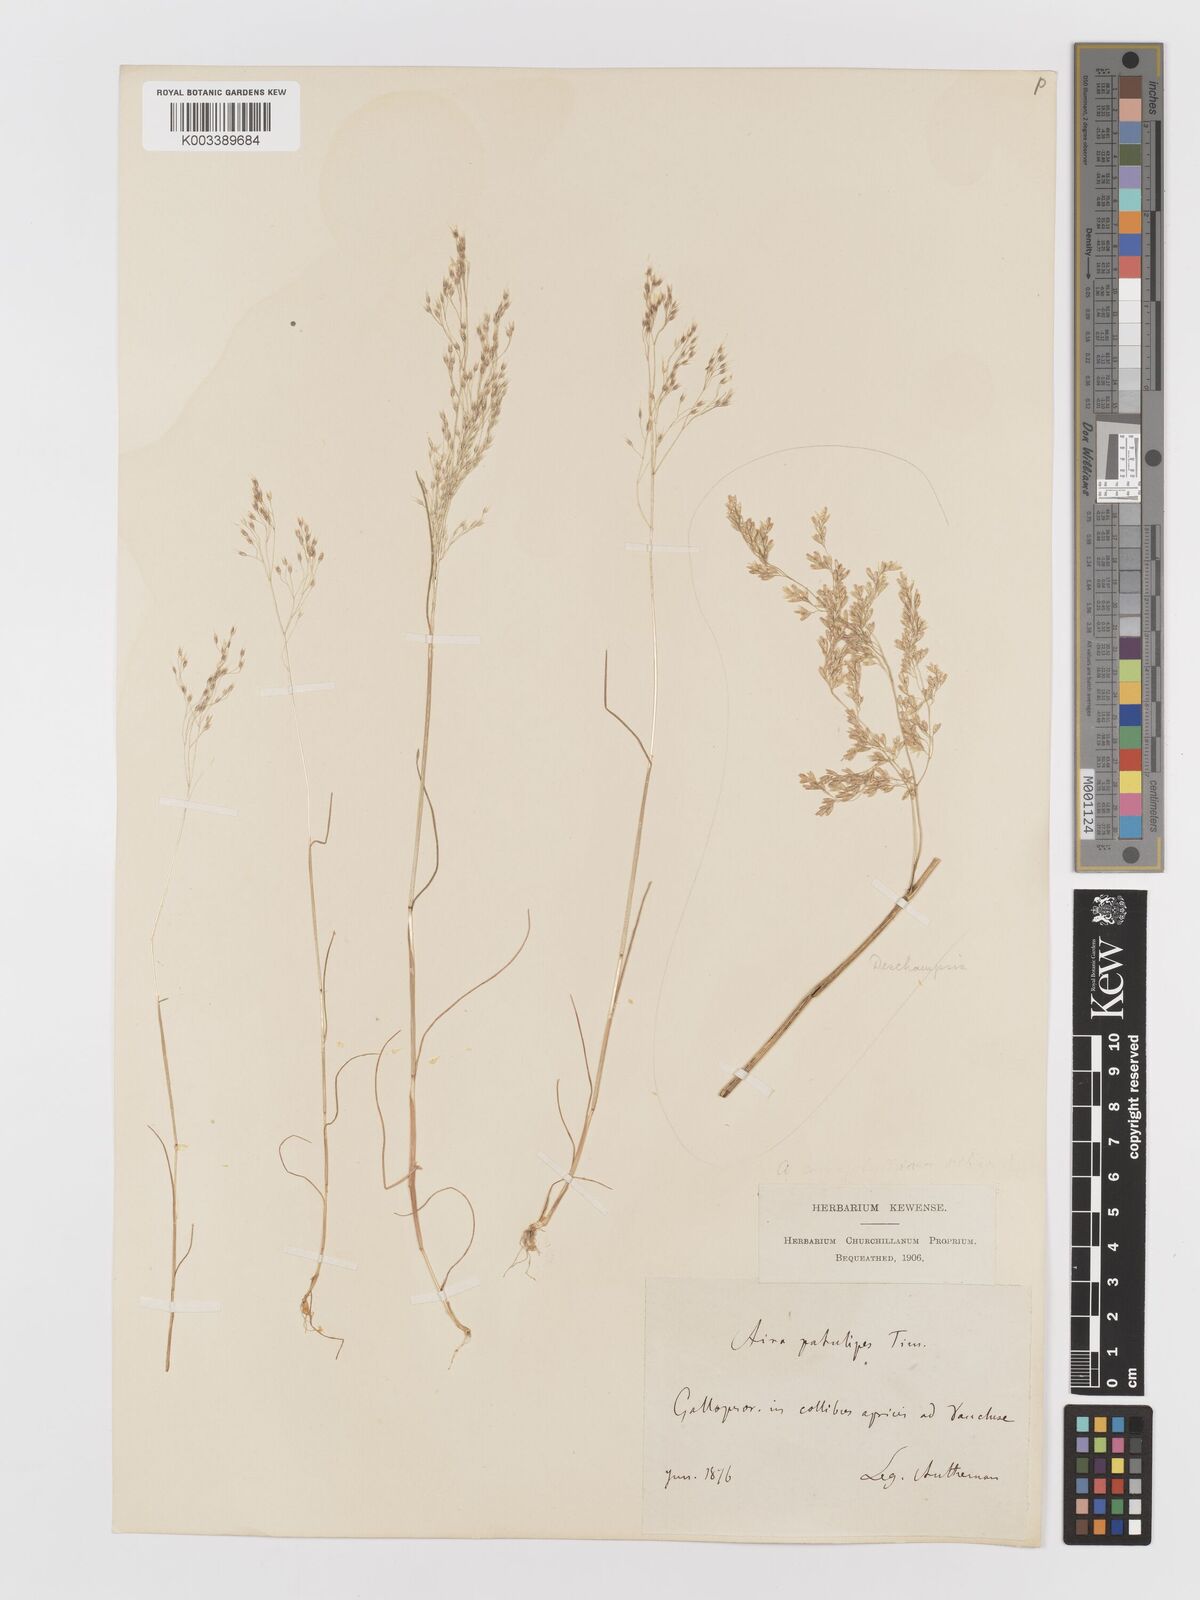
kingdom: Plantae
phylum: Tracheophyta
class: Liliopsida
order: Poales
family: Poaceae
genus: Aira
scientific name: Aira caryophyllea
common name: Silver hairgrass
